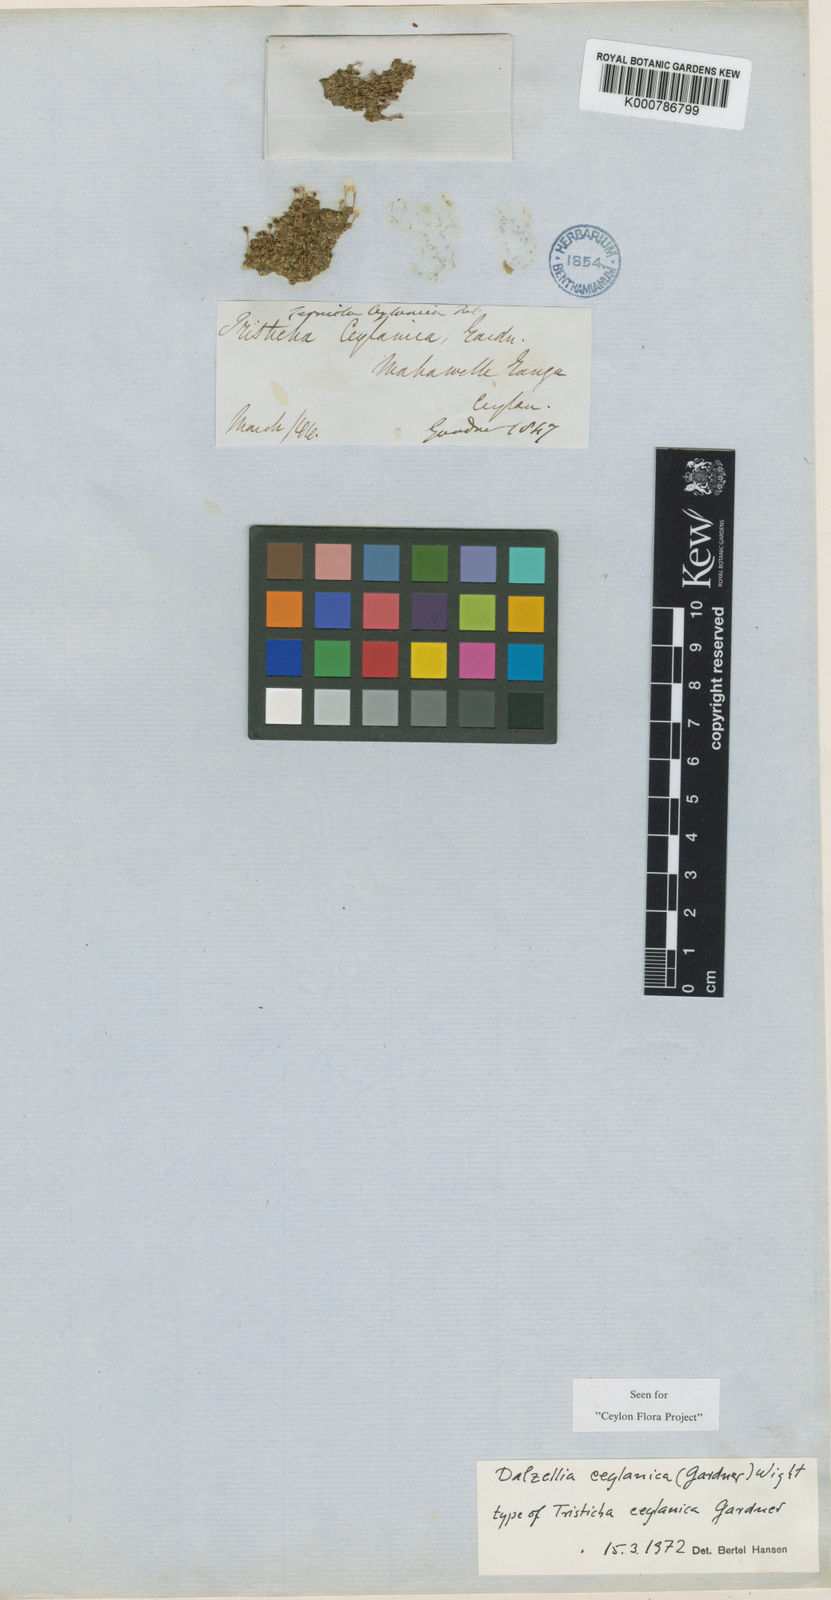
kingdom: Plantae
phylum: Tracheophyta
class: Magnoliopsida
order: Malpighiales
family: Podostemaceae
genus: Dalzellia
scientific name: Dalzellia ceylanica
